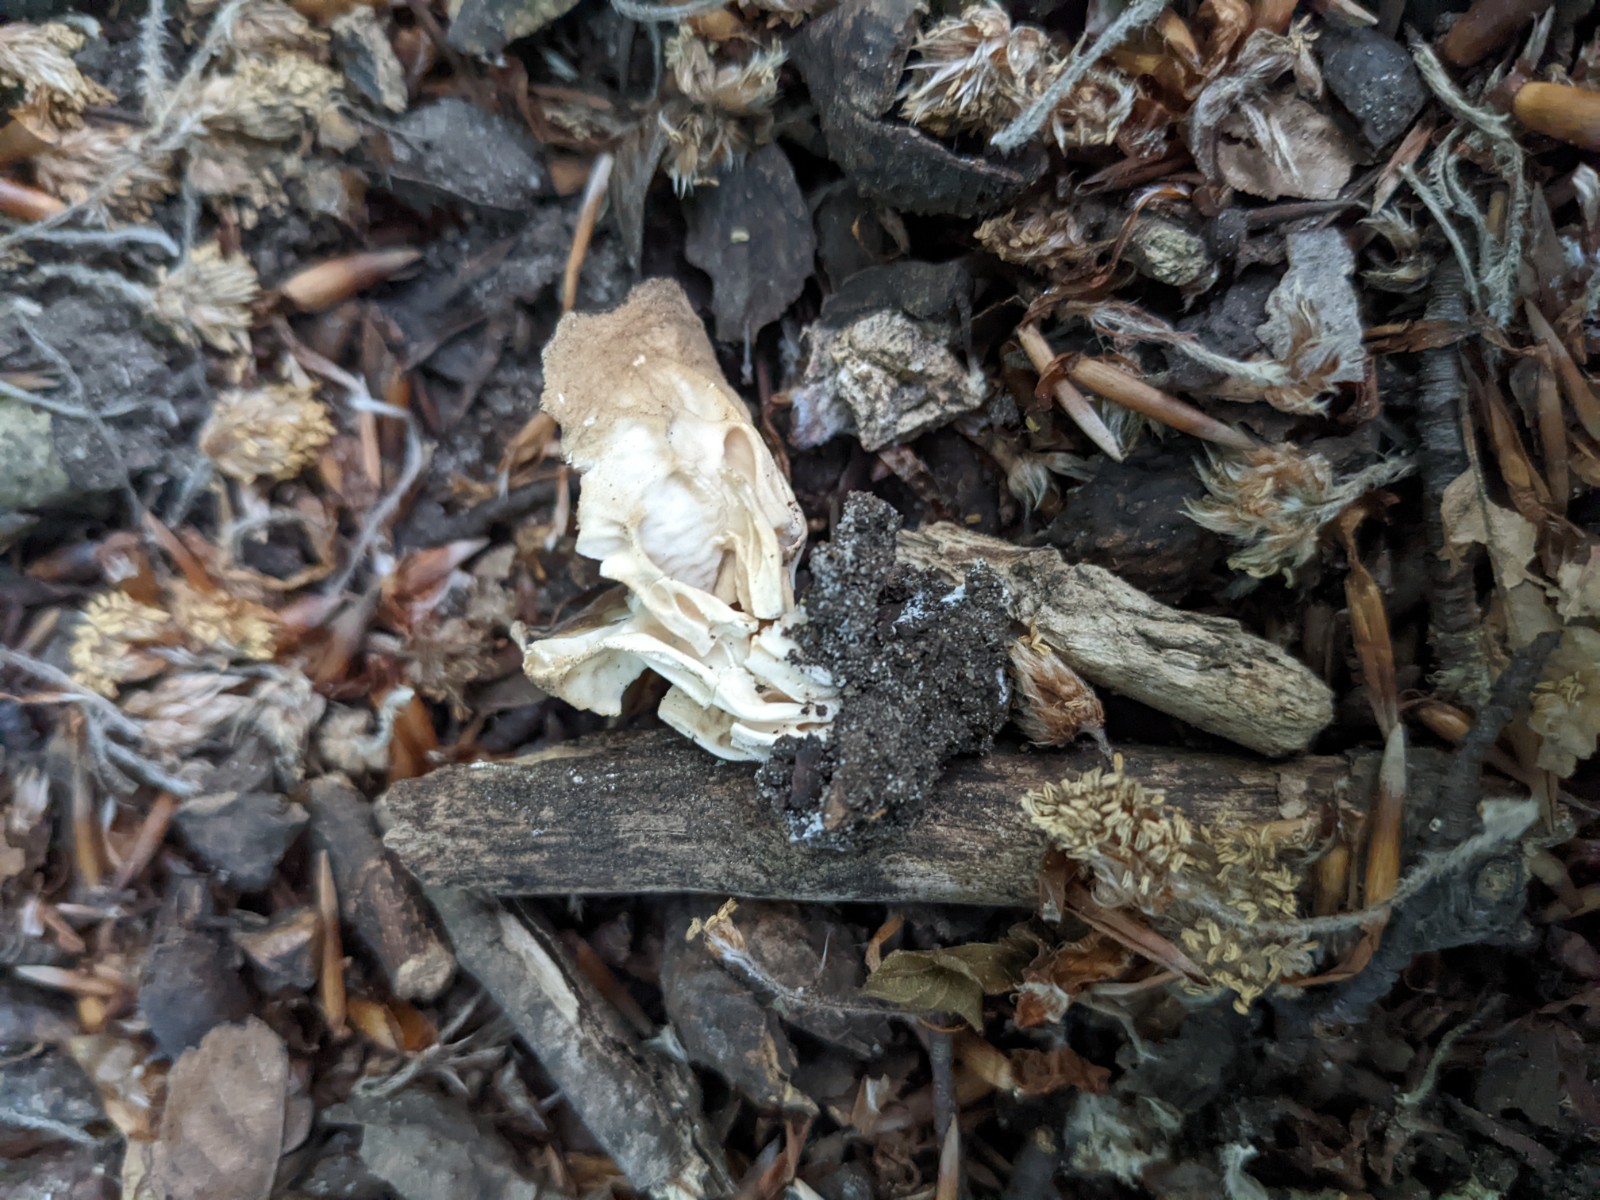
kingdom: Fungi
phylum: Ascomycota
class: Pezizomycetes
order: Pezizales
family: Helvellaceae
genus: Helvella
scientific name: Helvella acetabulum
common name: pokal-foldhat
